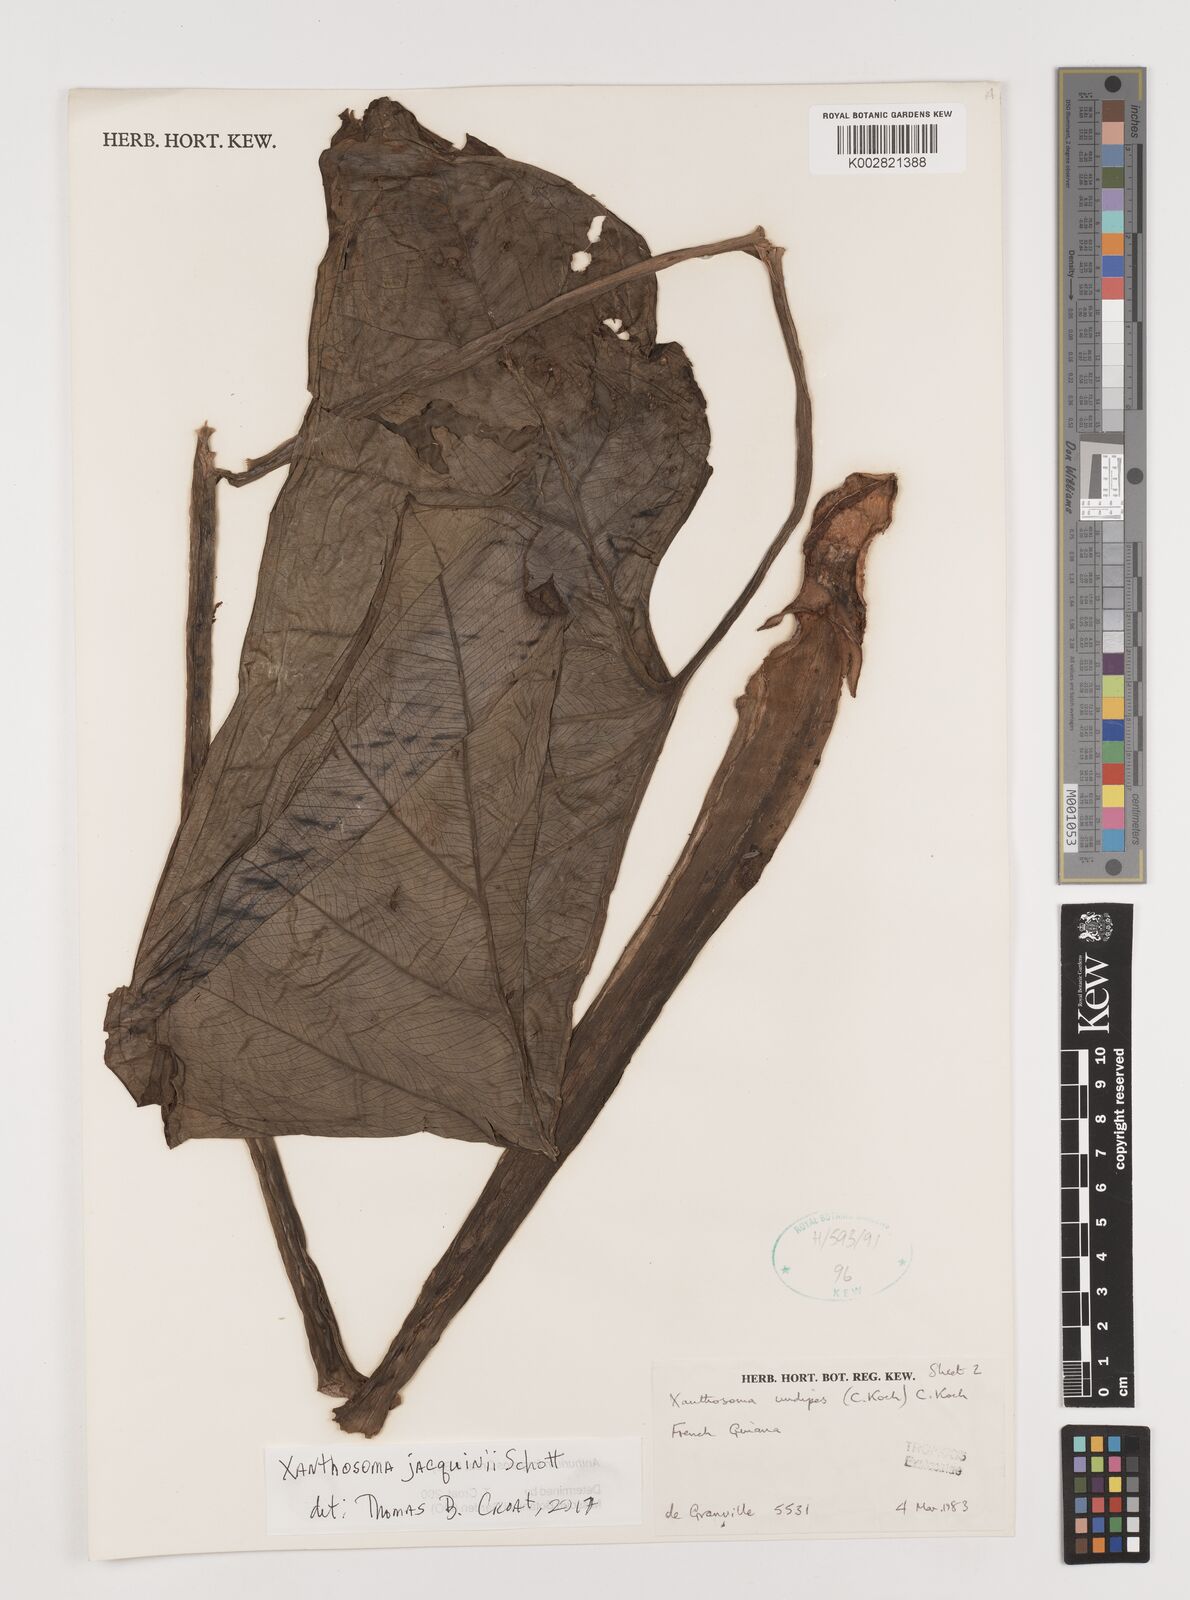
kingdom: Plantae
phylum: Tracheophyta
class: Liliopsida
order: Alismatales
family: Araceae
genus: Xanthosoma
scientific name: Xanthosoma sagittifolium
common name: Arrowleaf elephant's ear
